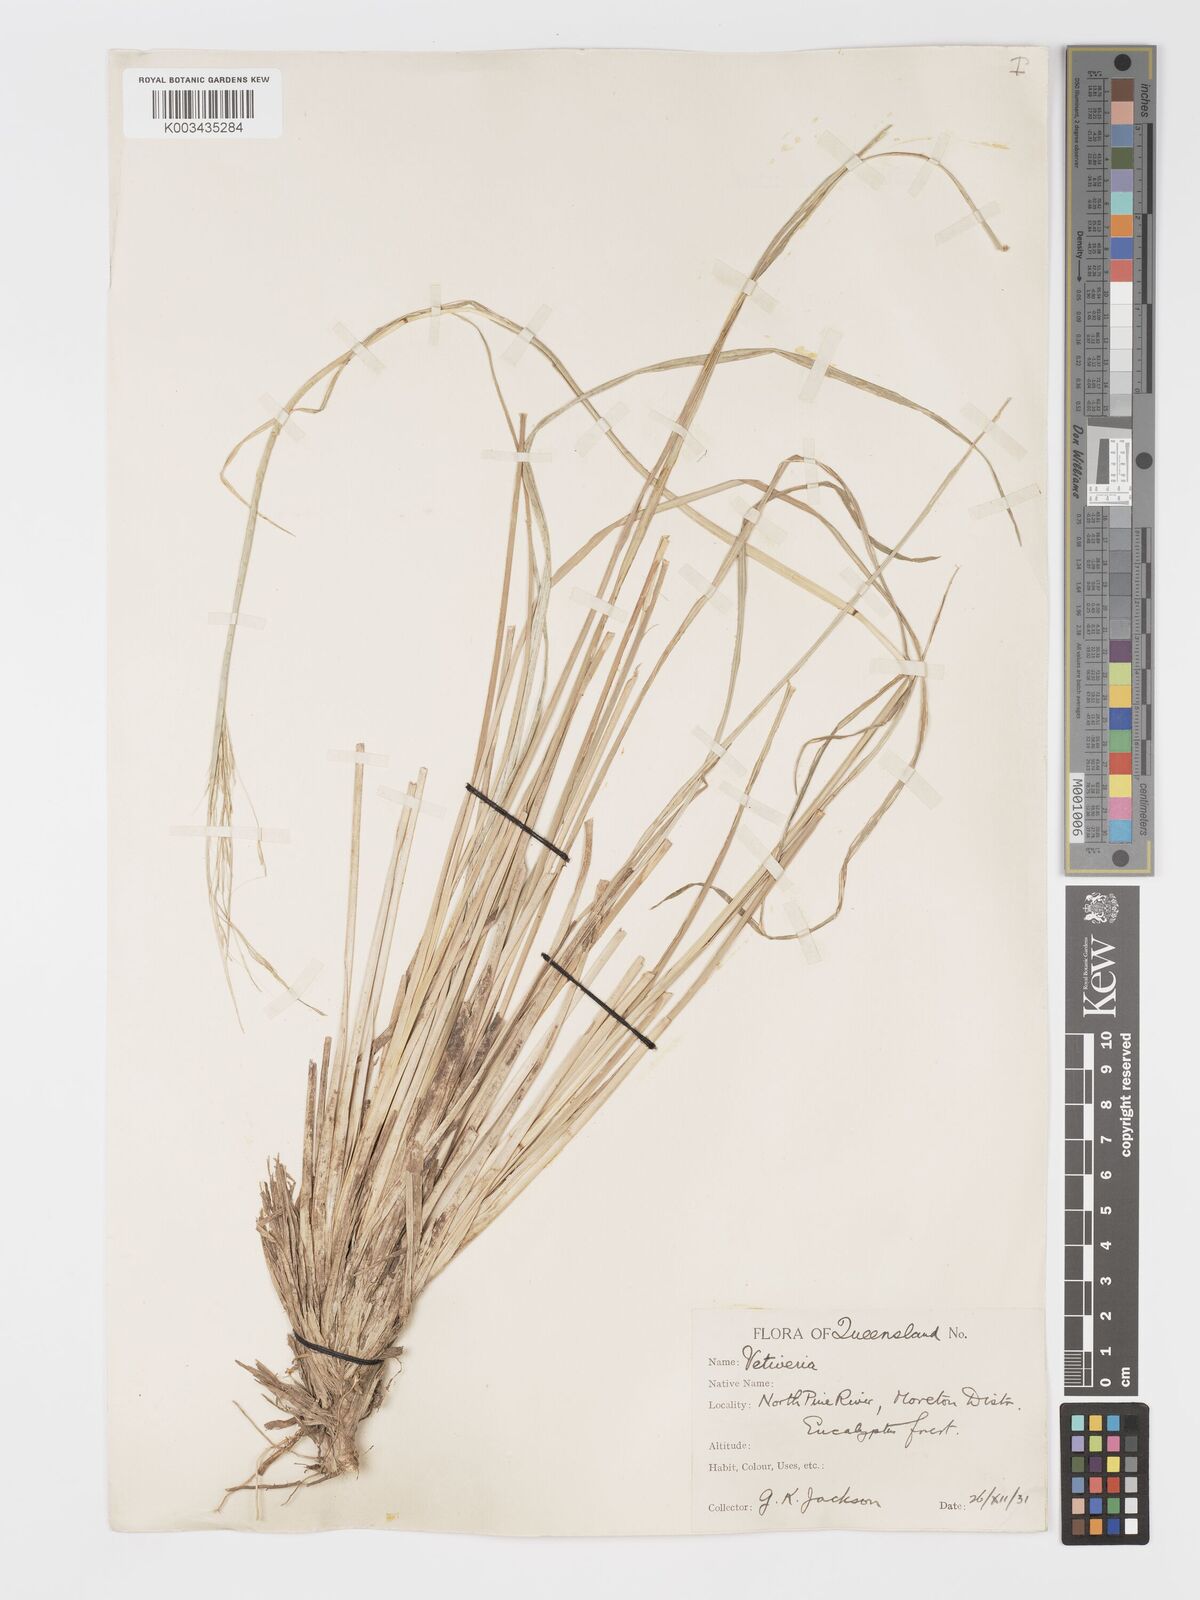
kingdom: Plantae
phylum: Tracheophyta
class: Liliopsida
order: Poales
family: Poaceae
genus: Chrysopogon
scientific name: Chrysopogon filipes
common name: Australian vetiver
